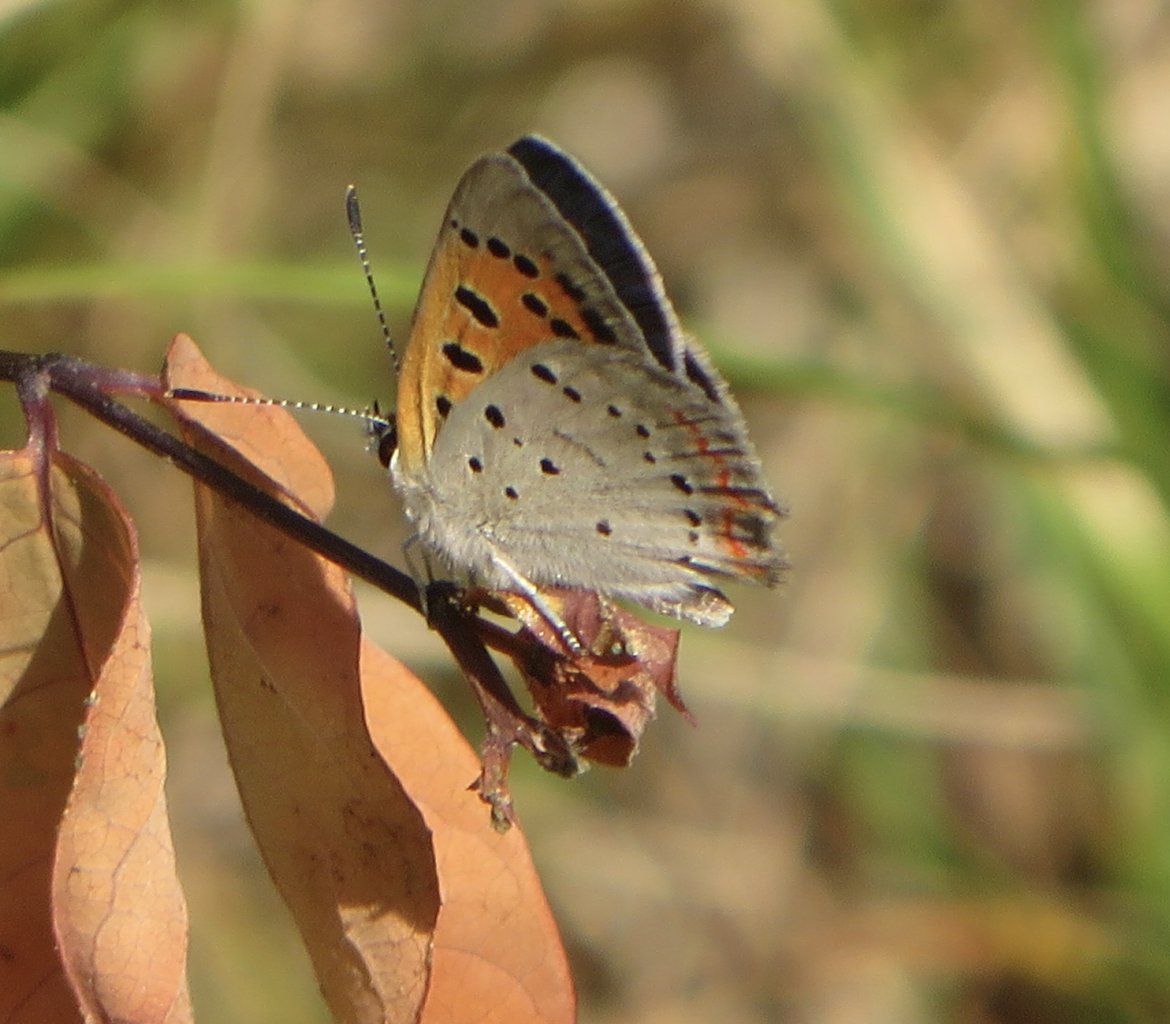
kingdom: Animalia
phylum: Arthropoda
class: Insecta
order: Lepidoptera
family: Lycaenidae
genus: Lycaena
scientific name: Lycaena phlaeas
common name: American Copper
